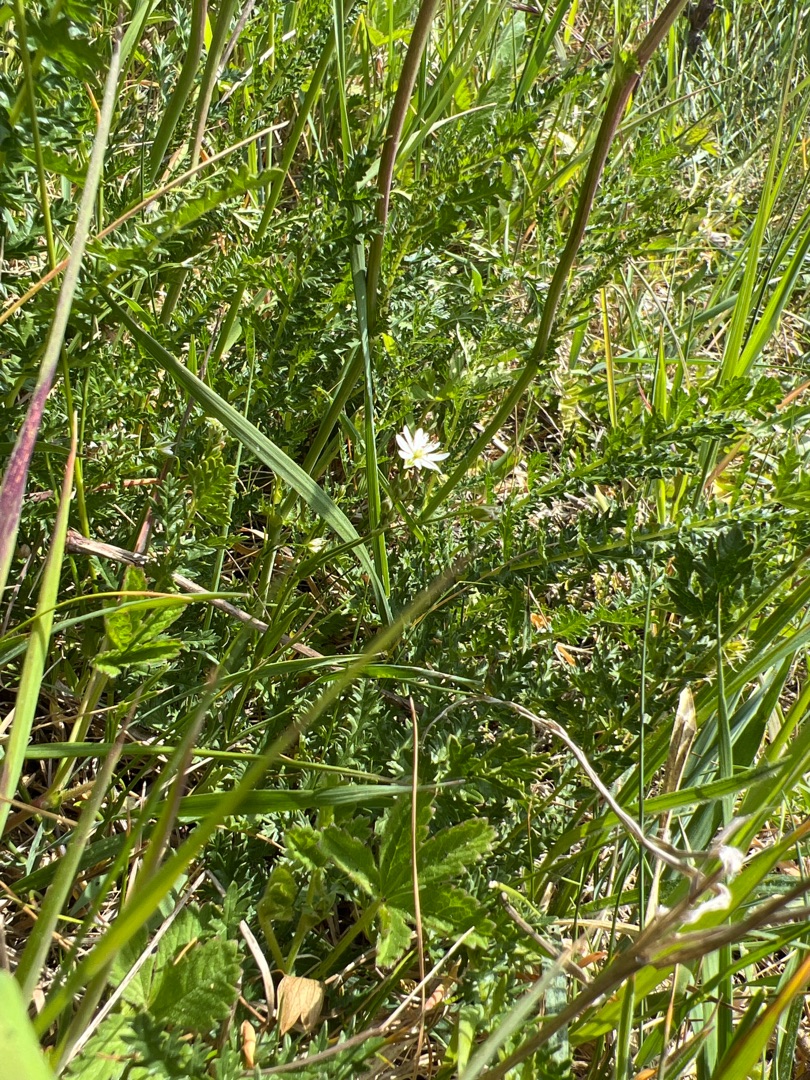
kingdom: Plantae
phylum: Tracheophyta
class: Magnoliopsida
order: Caryophyllales
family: Caryophyllaceae
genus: Stellaria
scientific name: Stellaria graminea
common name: Græsbladet fladstjerne
